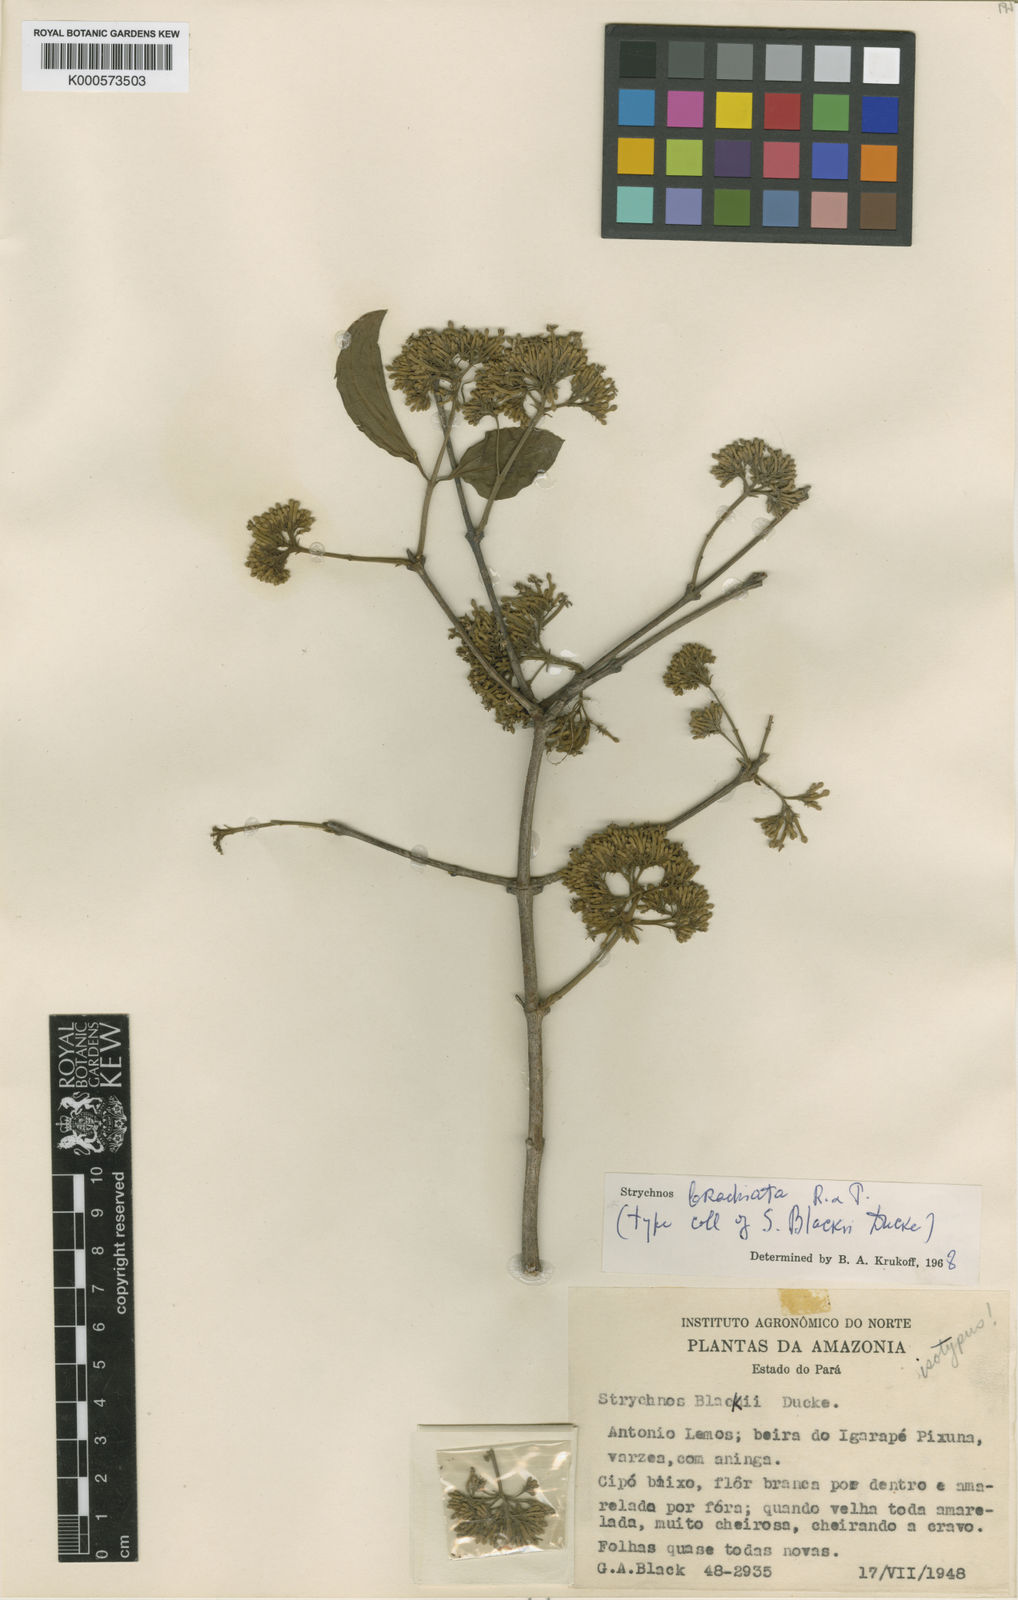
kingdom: Plantae
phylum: Tracheophyta
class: Magnoliopsida
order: Gentianales
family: Loganiaceae
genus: Strychnos
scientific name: Strychnos brachiata
